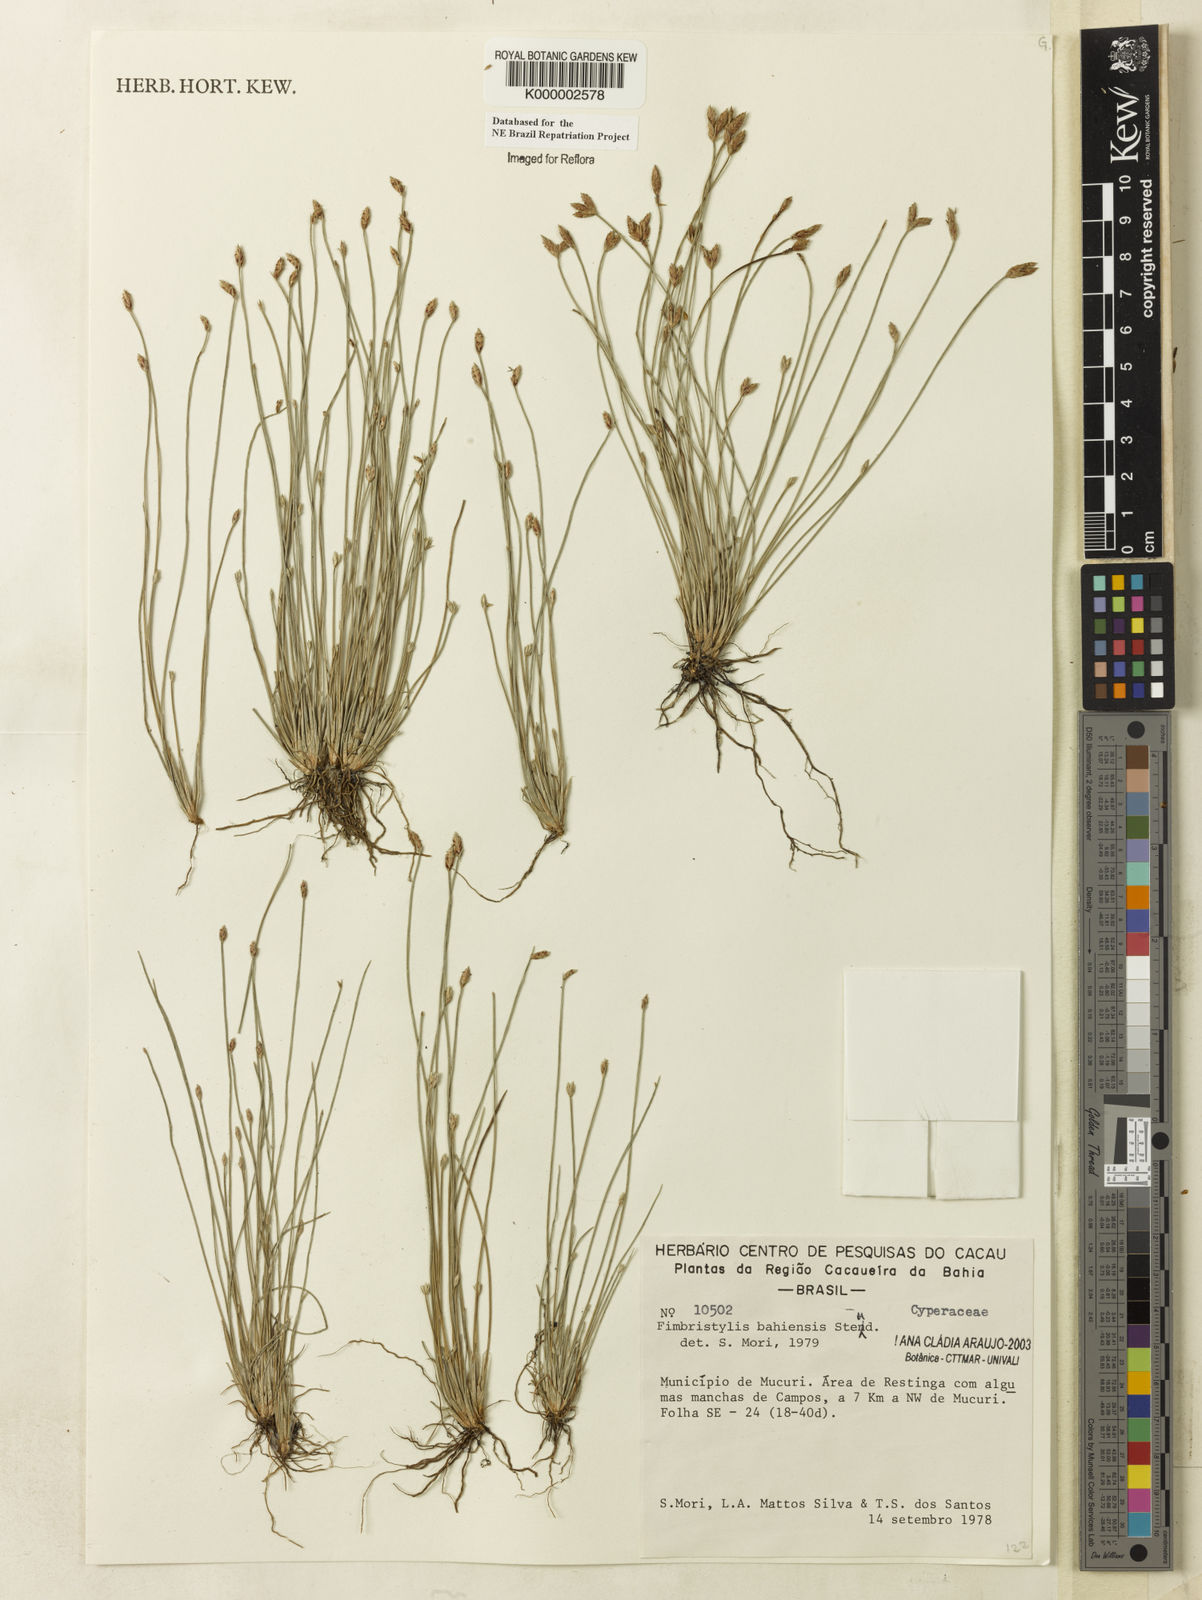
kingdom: Plantae
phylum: Tracheophyta
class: Liliopsida
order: Poales
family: Cyperaceae
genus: Fimbristylis
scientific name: Fimbristylis bahiensis
